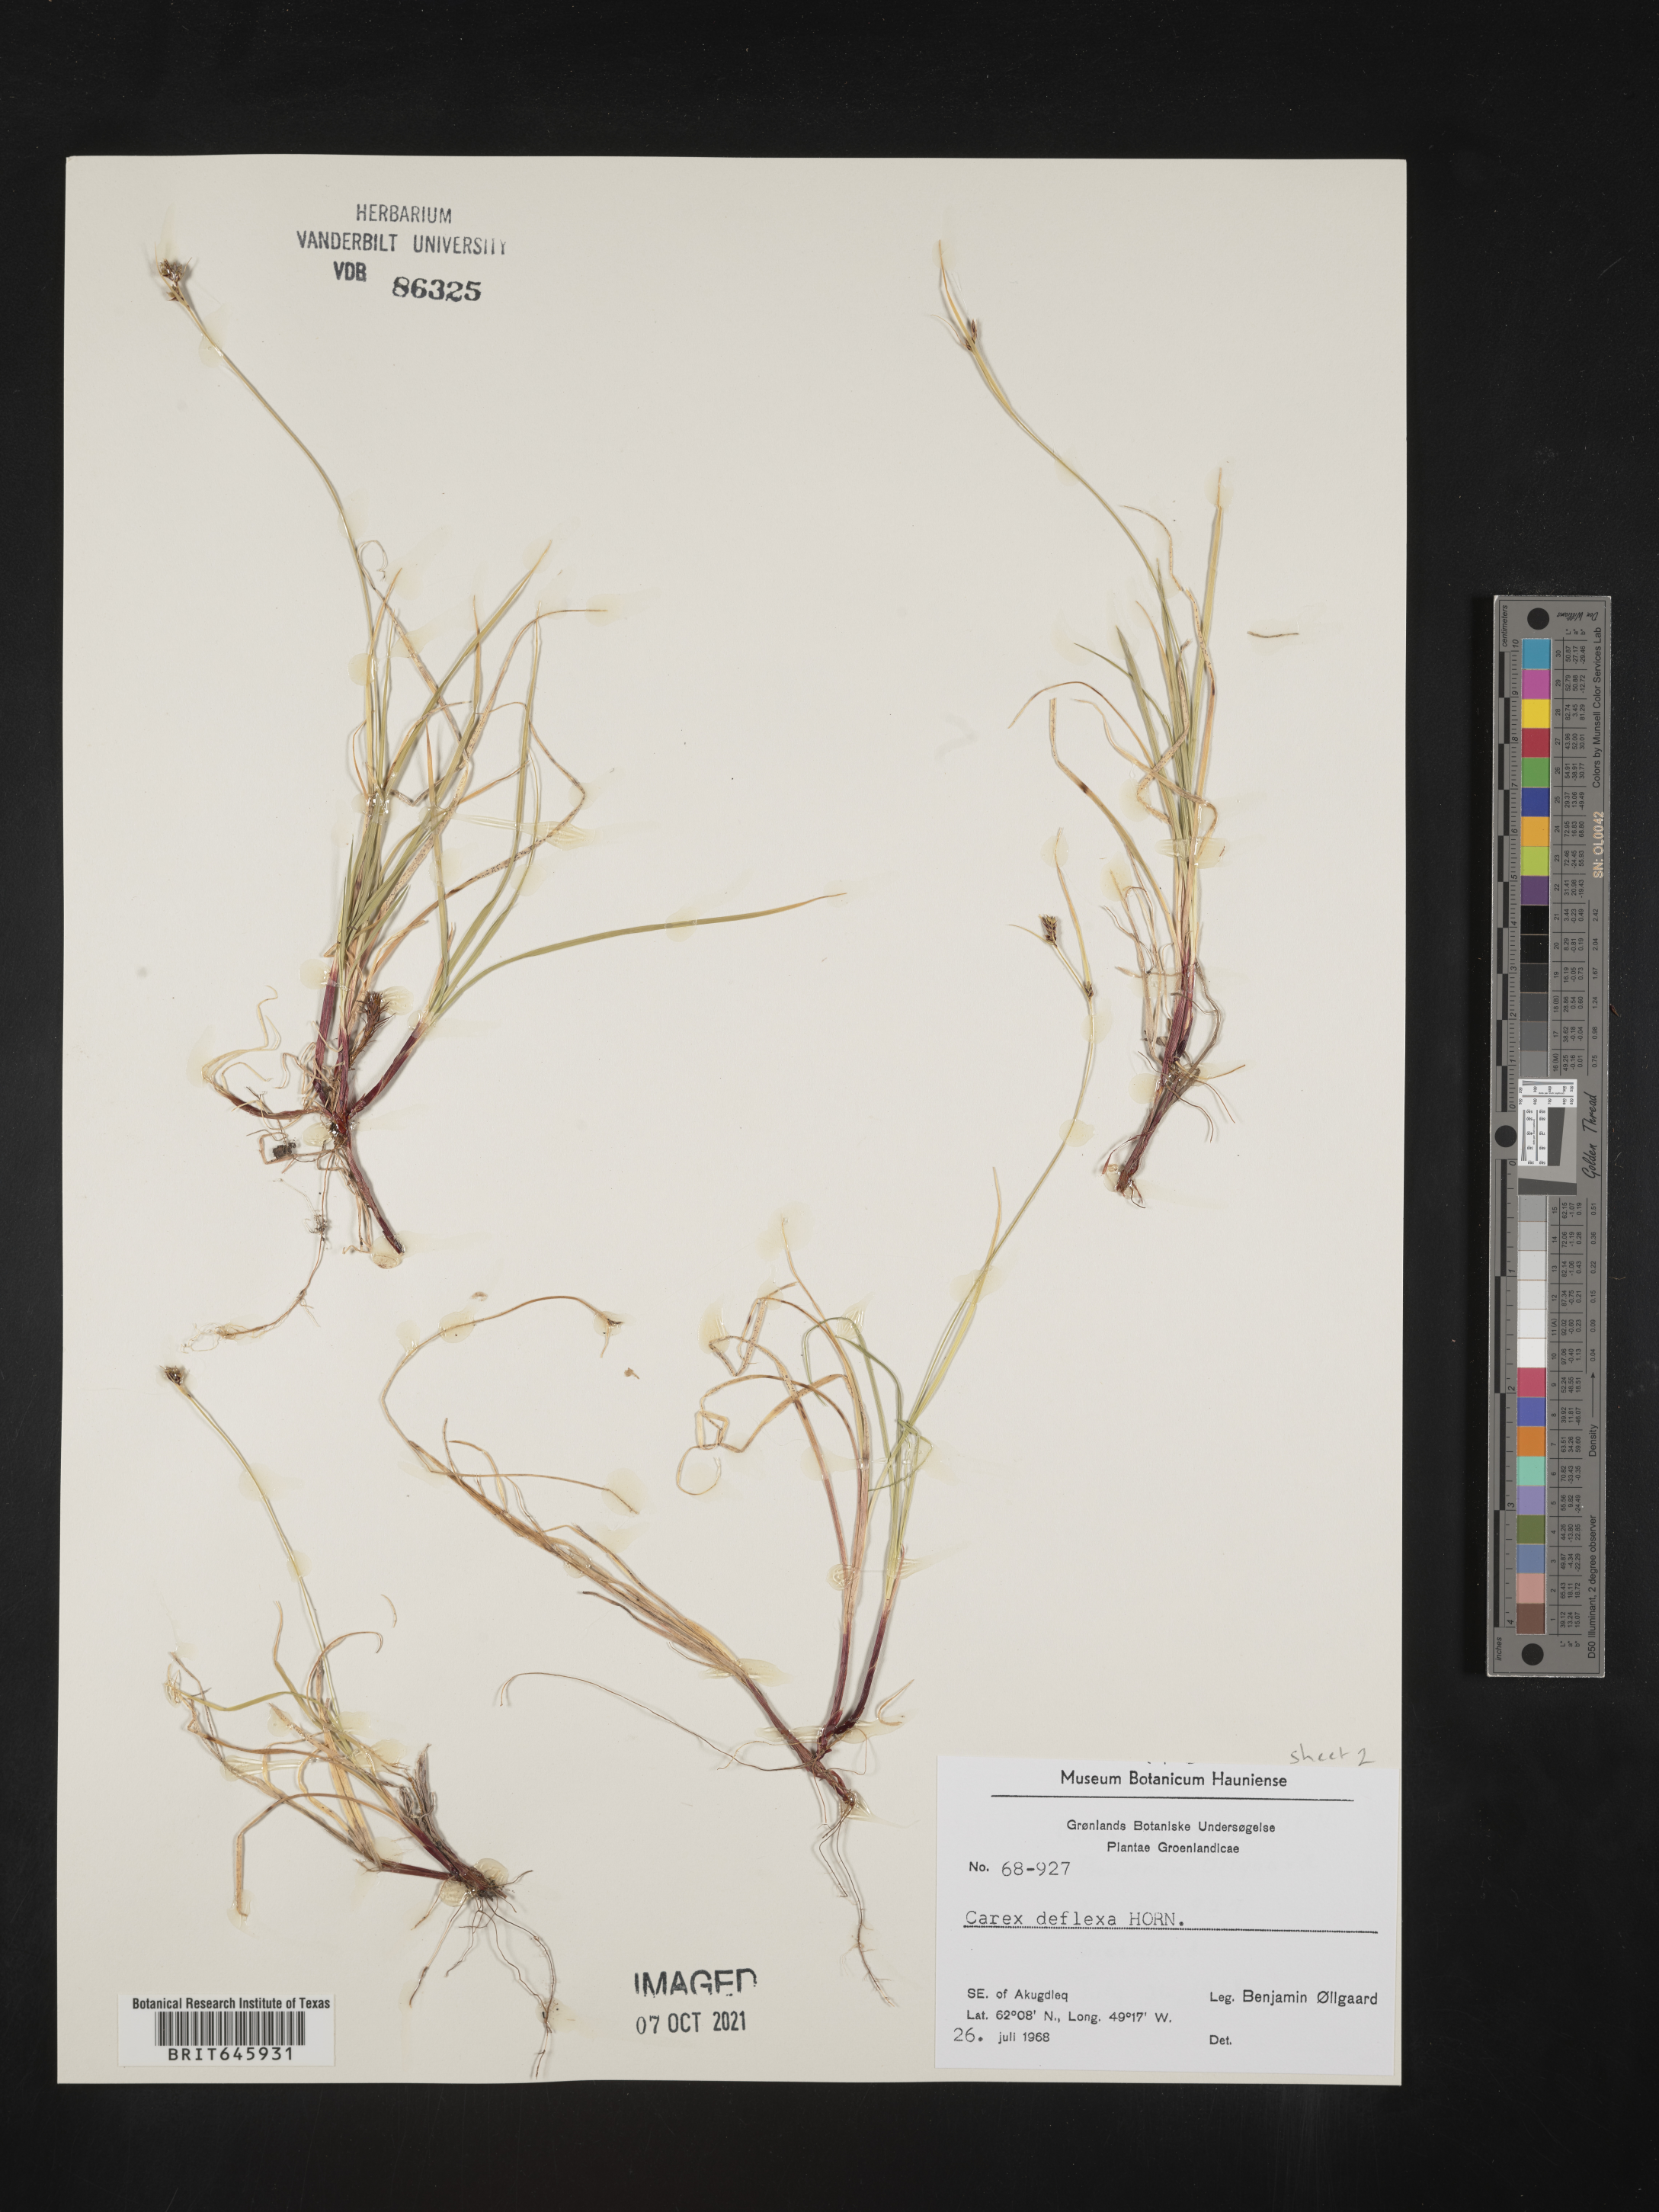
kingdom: Plantae
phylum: Tracheophyta
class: Liliopsida
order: Poales
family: Cyperaceae
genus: Carex
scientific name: Carex deflexa
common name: Bent northern sedge
